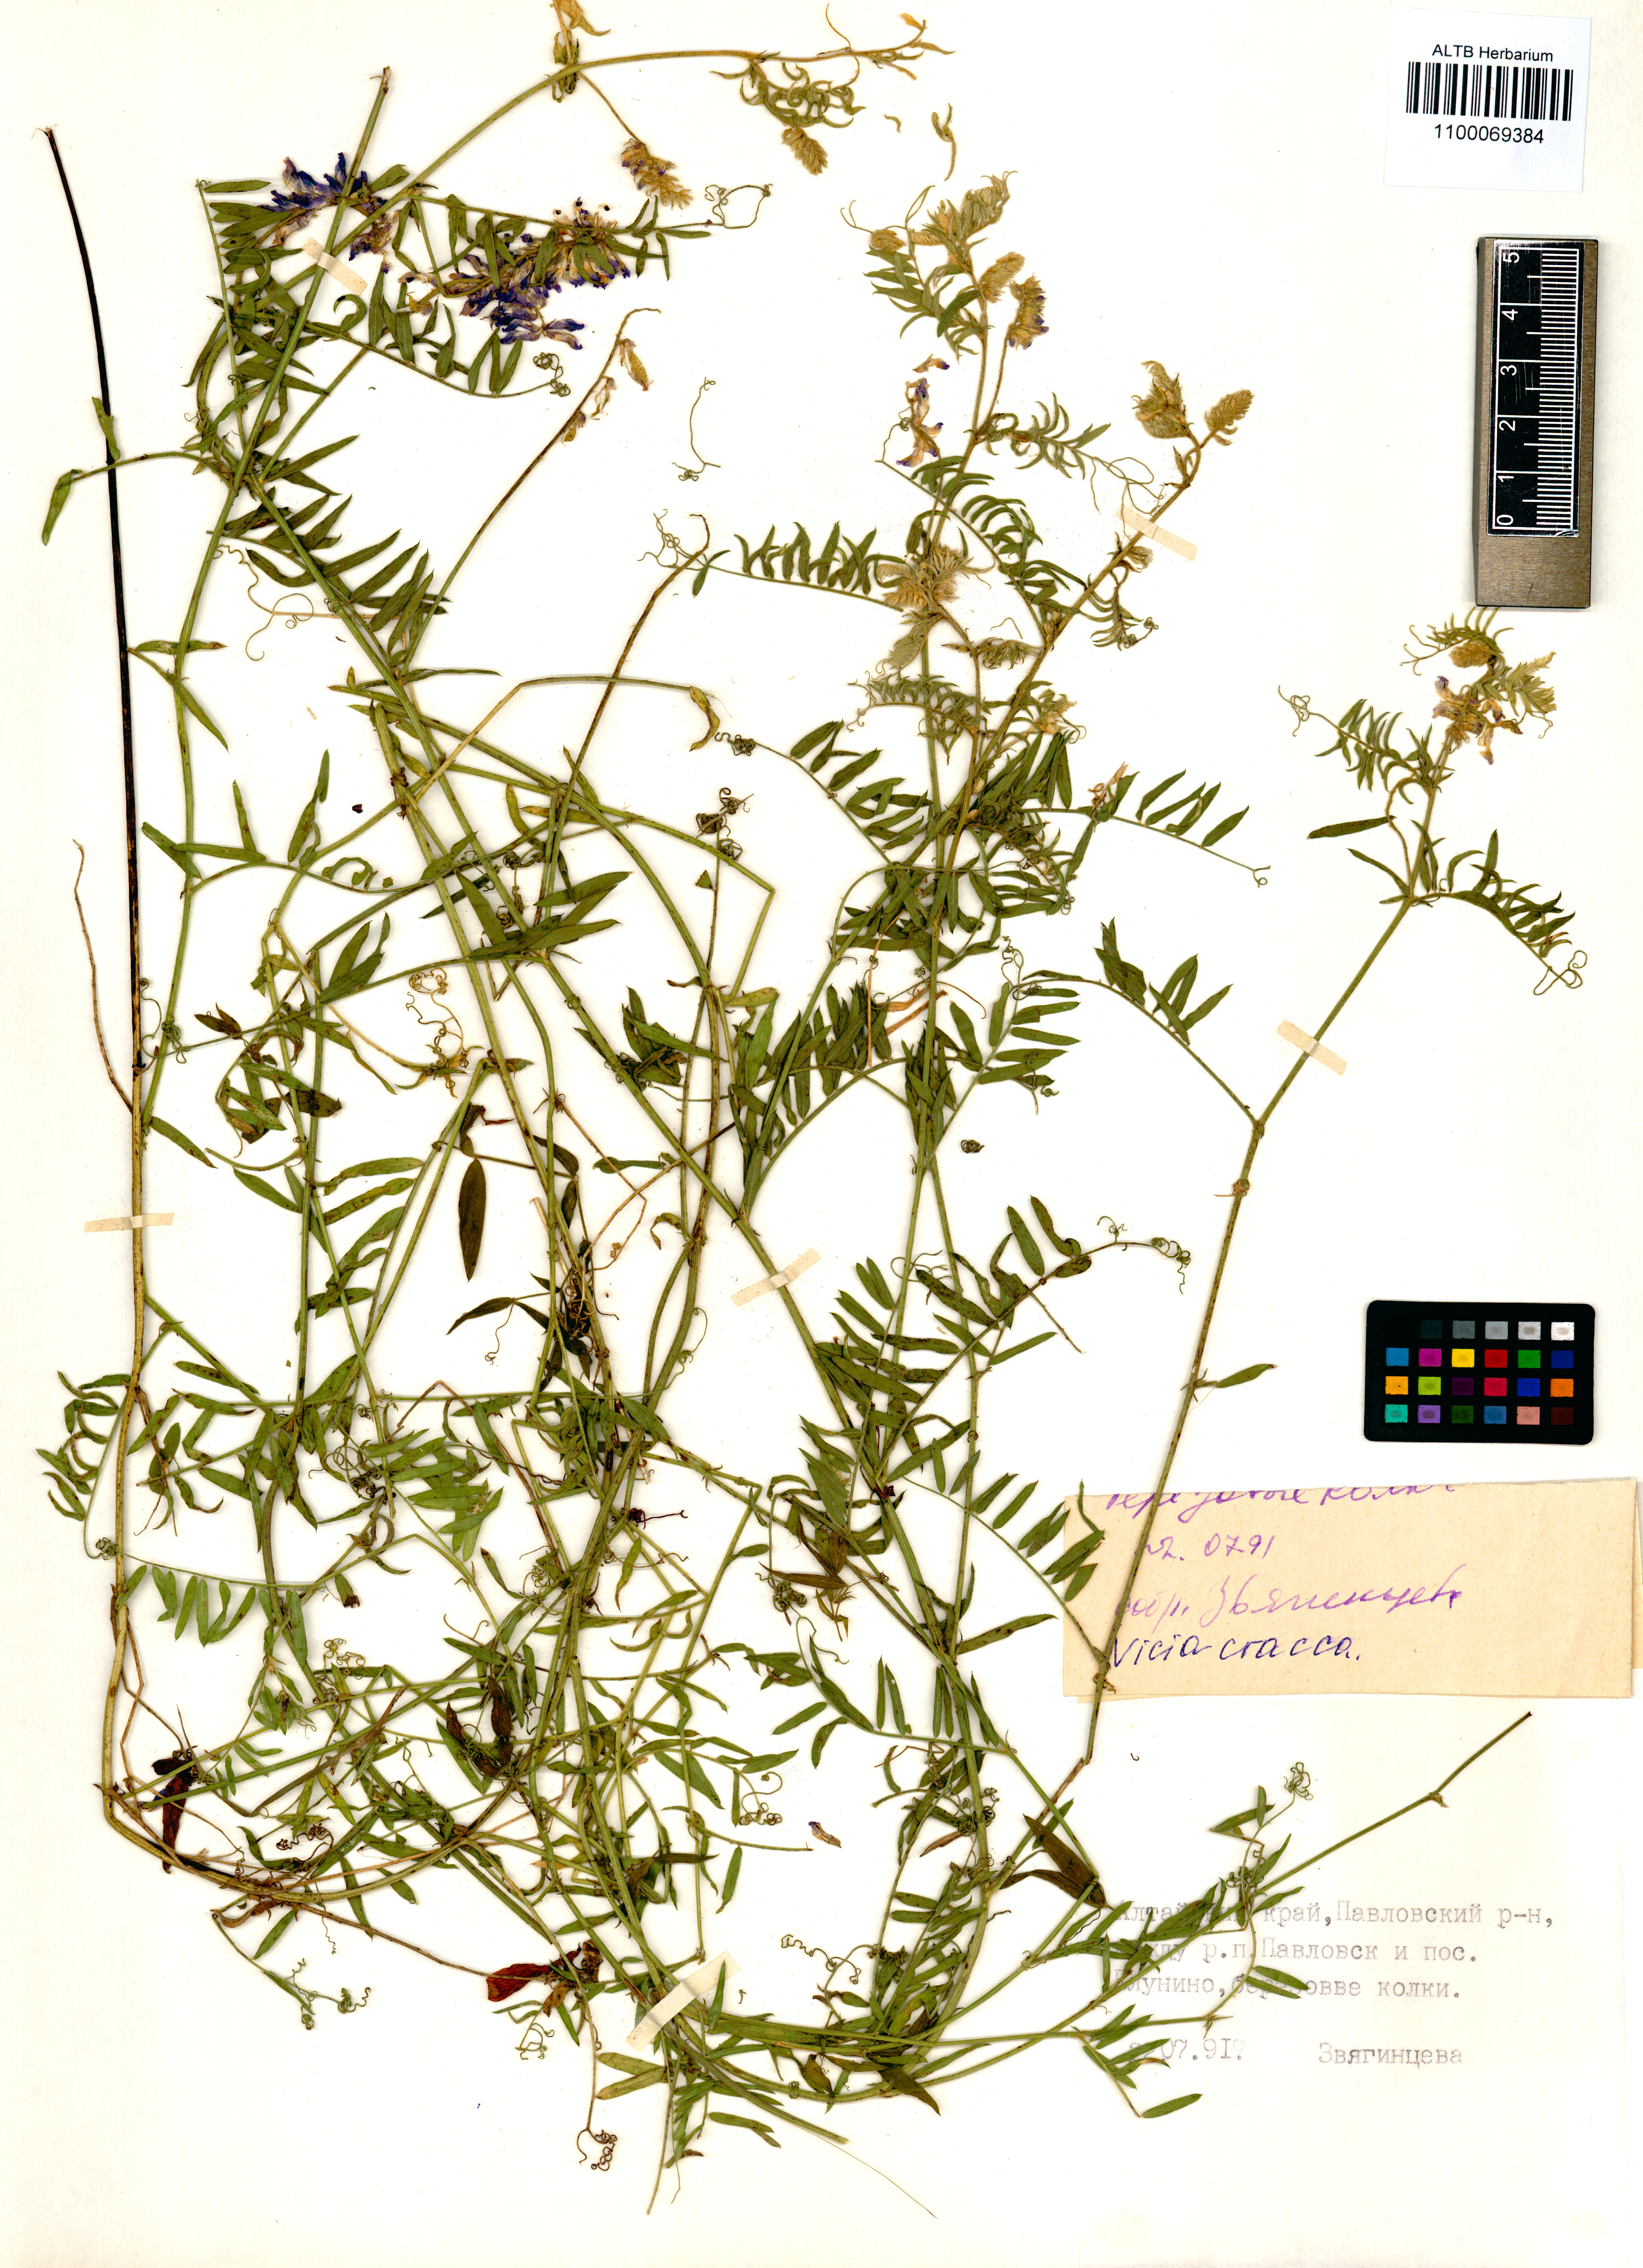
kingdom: Plantae
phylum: Tracheophyta
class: Magnoliopsida
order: Fabales
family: Fabaceae
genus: Vicia
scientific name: Vicia cracca
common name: Bird vetch
